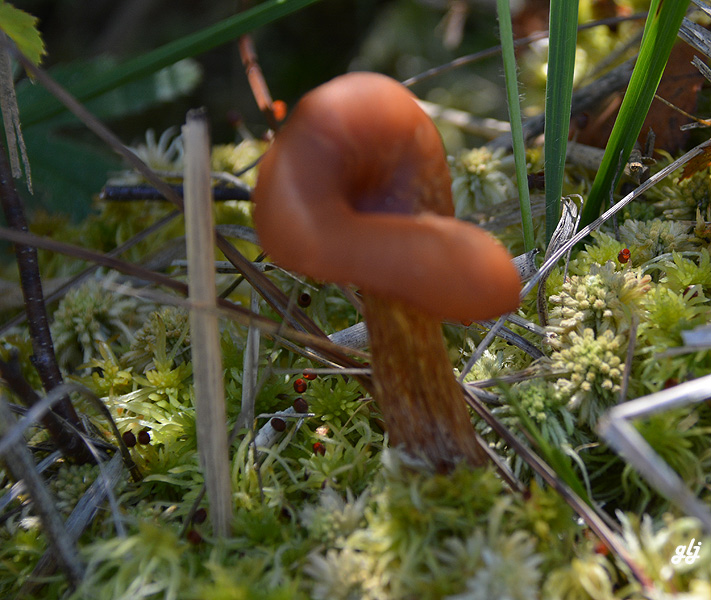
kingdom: Fungi
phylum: Basidiomycota
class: Agaricomycetes
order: Agaricales
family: Hydnangiaceae
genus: Laccaria
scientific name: Laccaria proxima
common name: stor ametysthat
